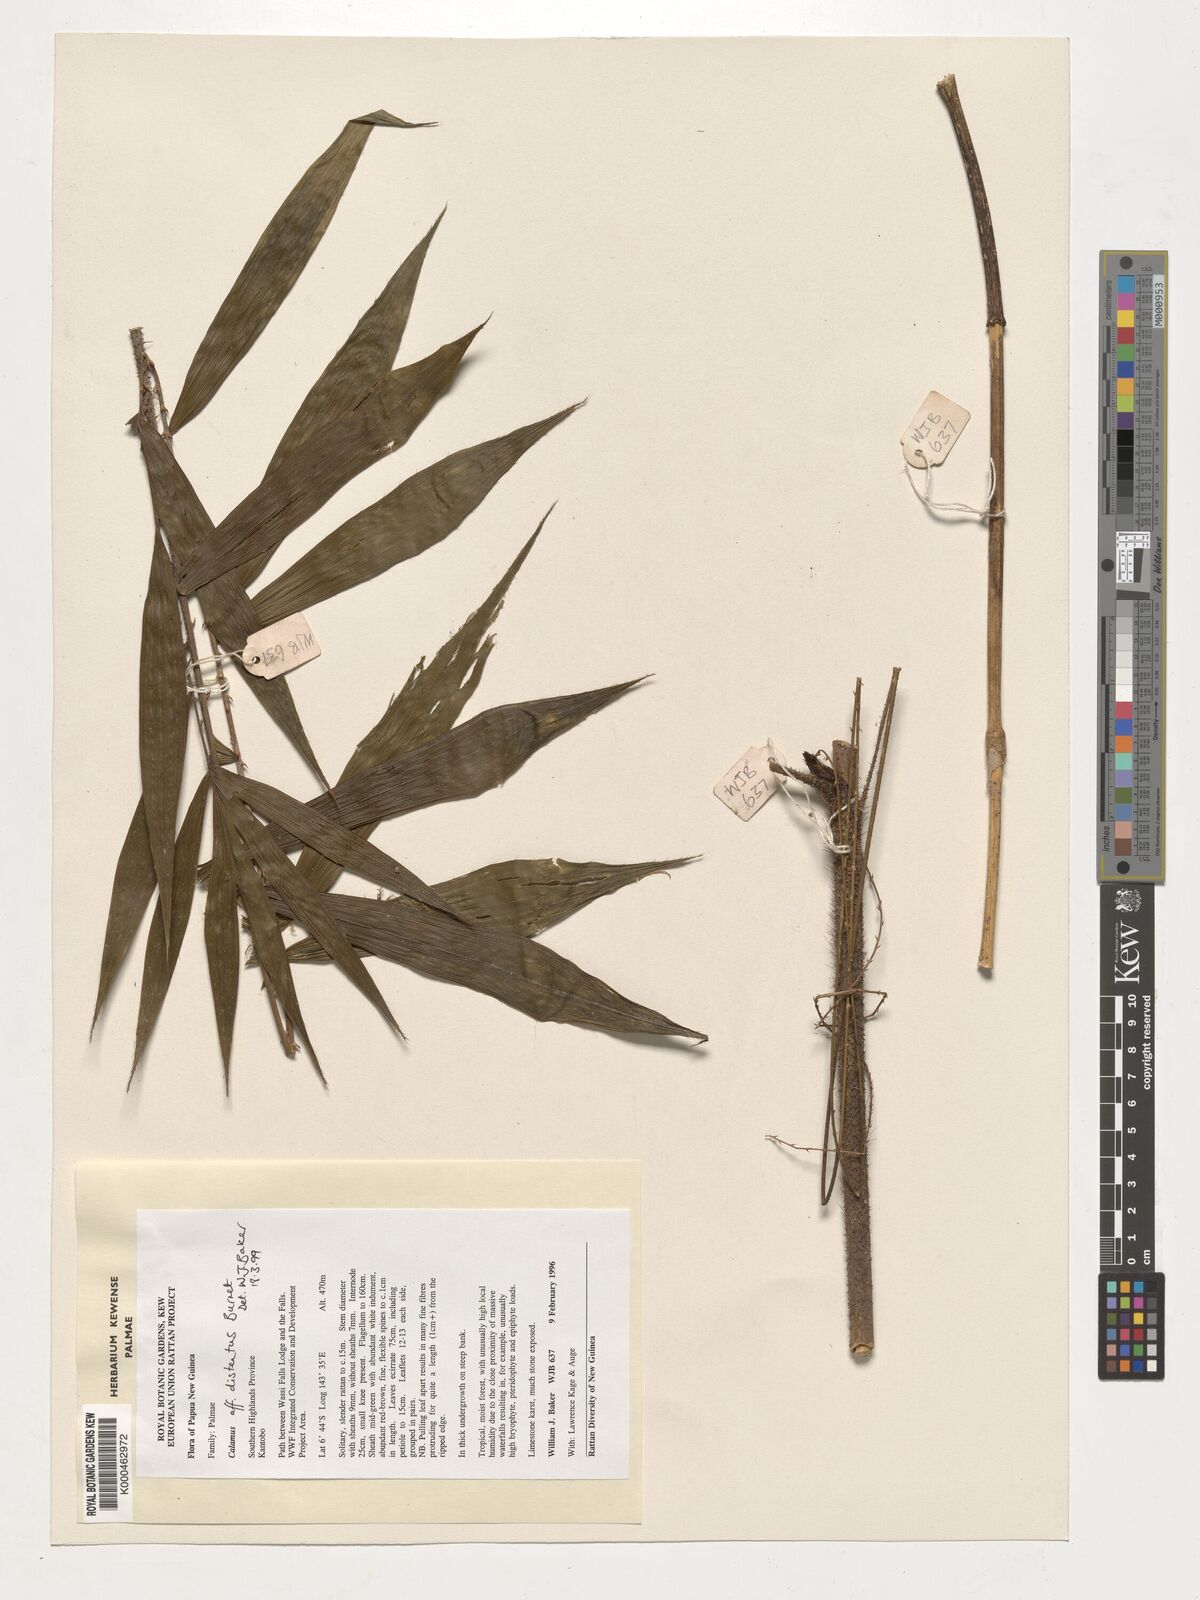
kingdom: Plantae
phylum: Tracheophyta
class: Liliopsida
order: Arecales
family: Arecaceae
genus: Calamus
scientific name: Calamus distentus
